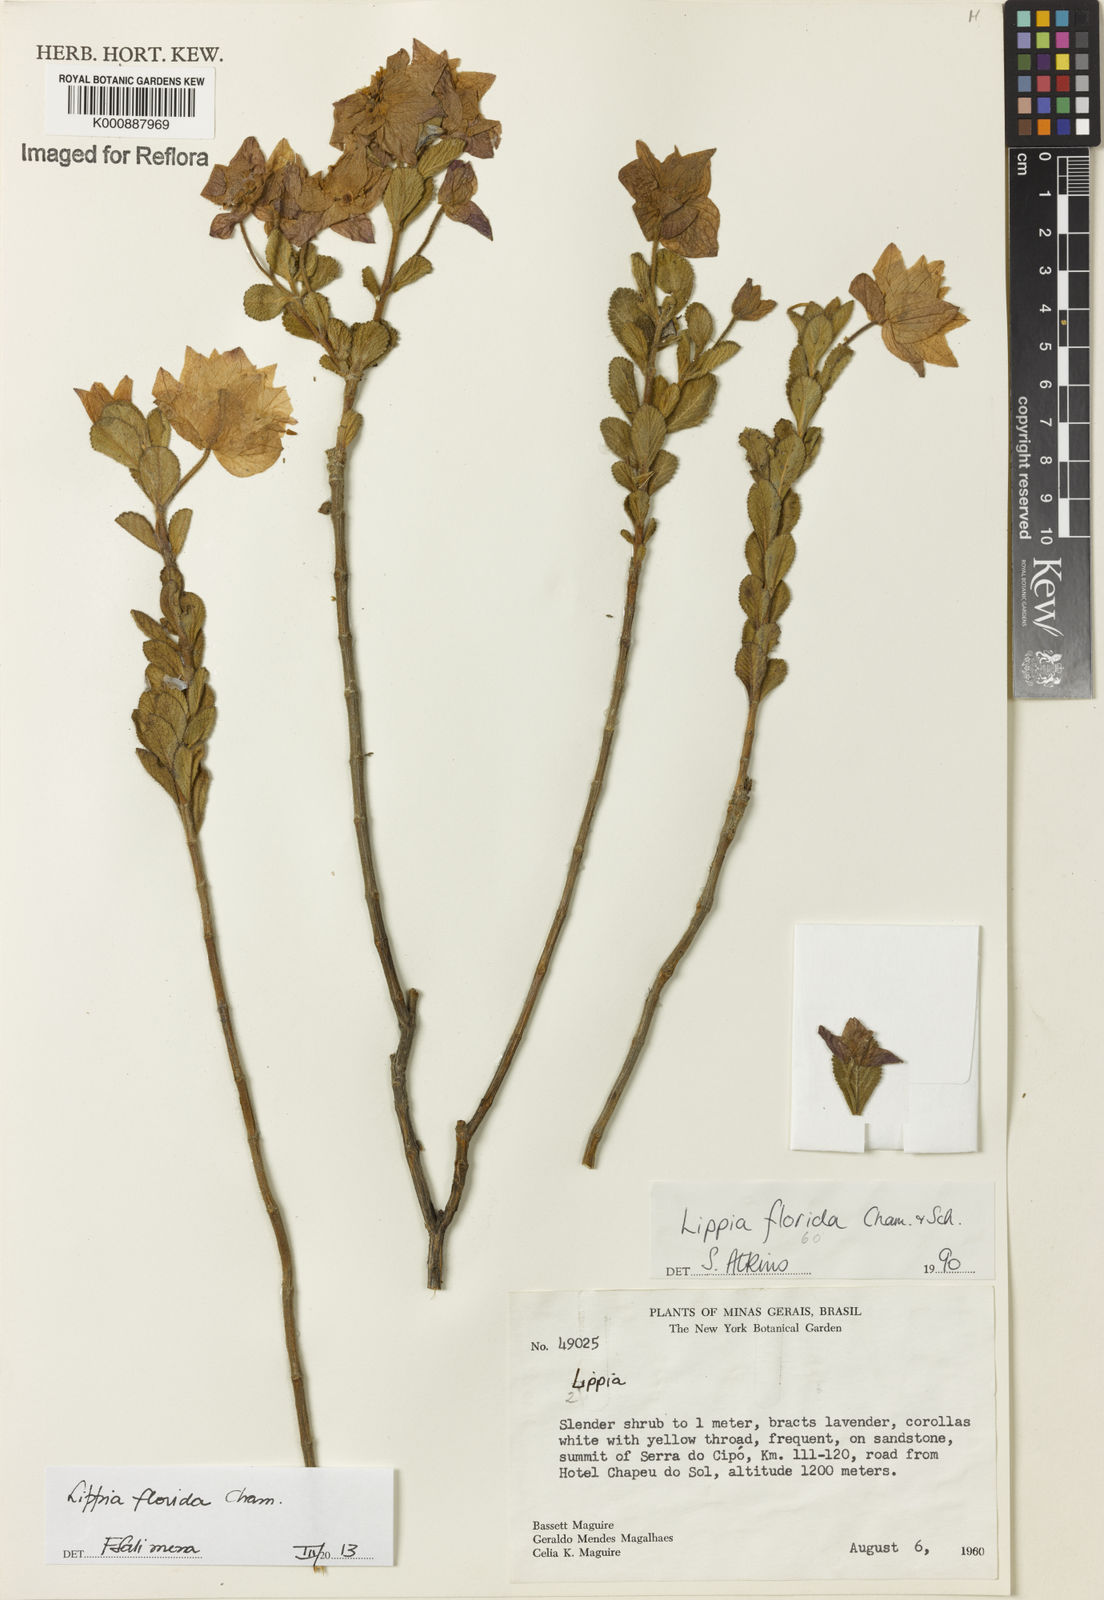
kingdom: Plantae
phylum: Tracheophyta
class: Magnoliopsida
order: Lamiales
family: Verbenaceae
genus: Lippia
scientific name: Lippia florida
